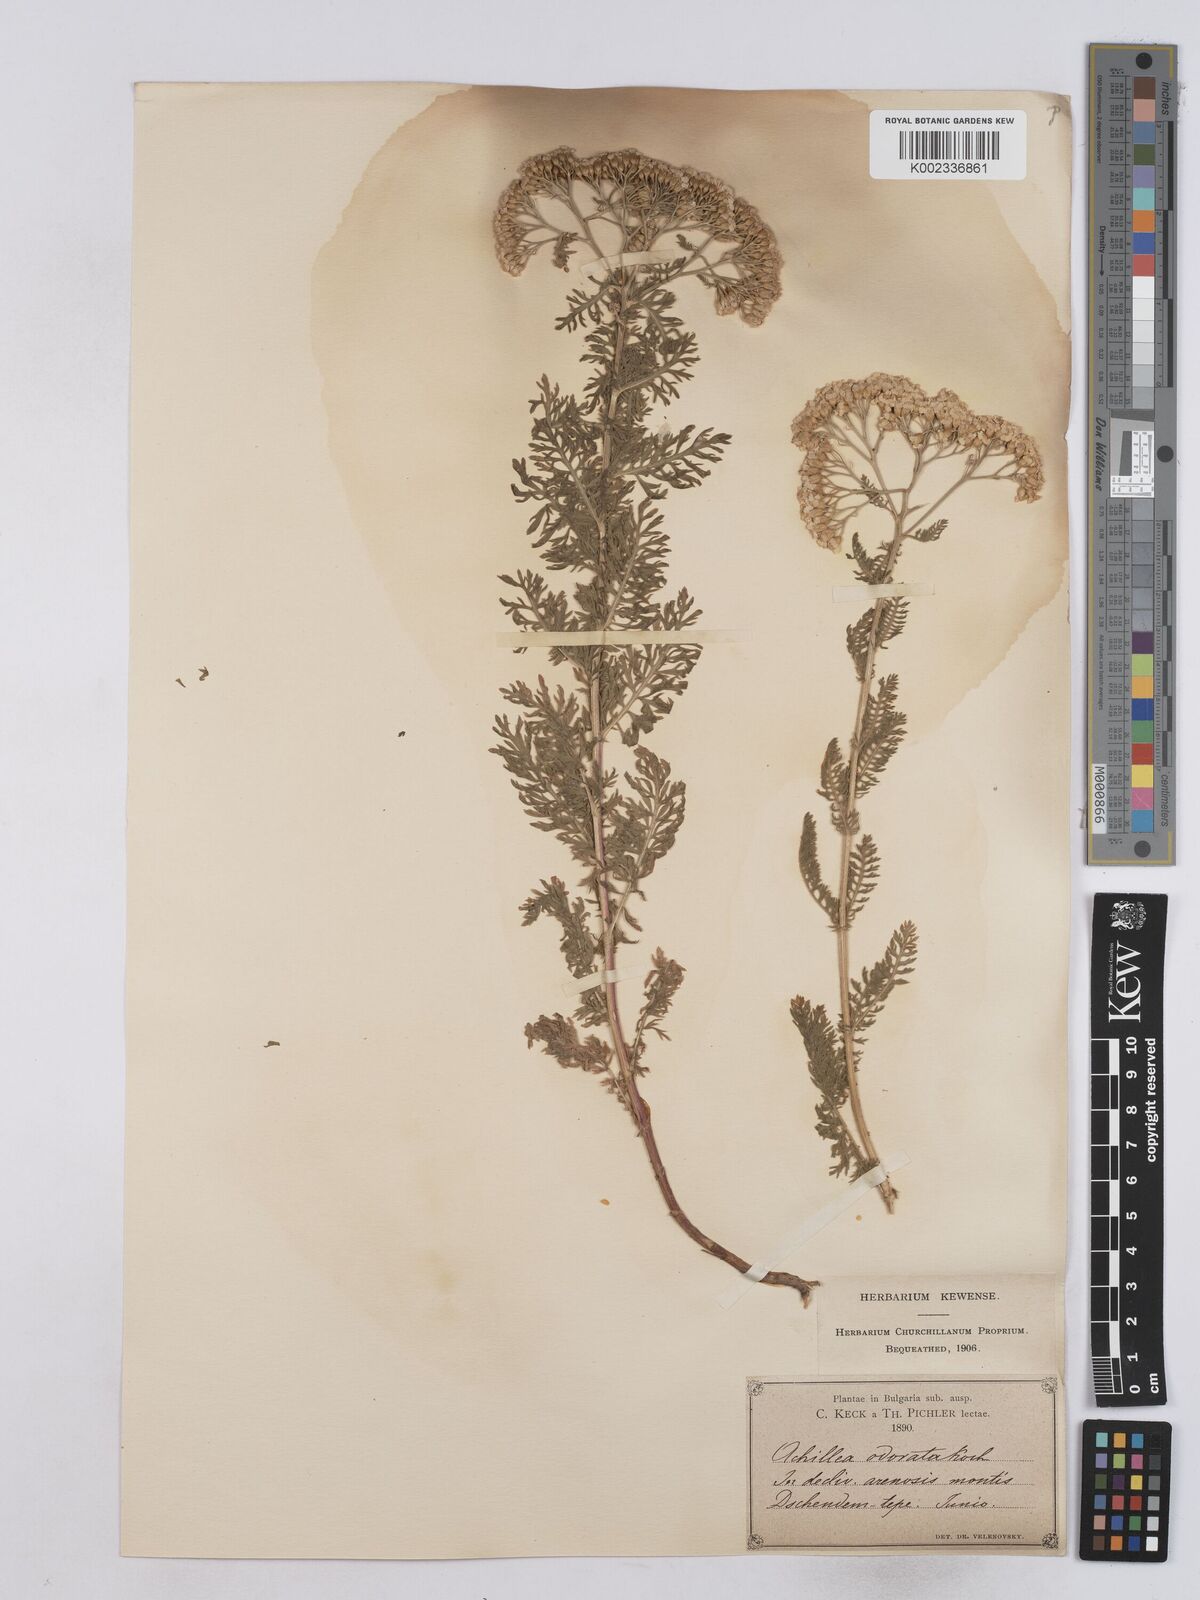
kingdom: Plantae
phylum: Tracheophyta
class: Magnoliopsida
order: Asterales
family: Asteraceae
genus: Achillea
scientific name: Achillea odorata
